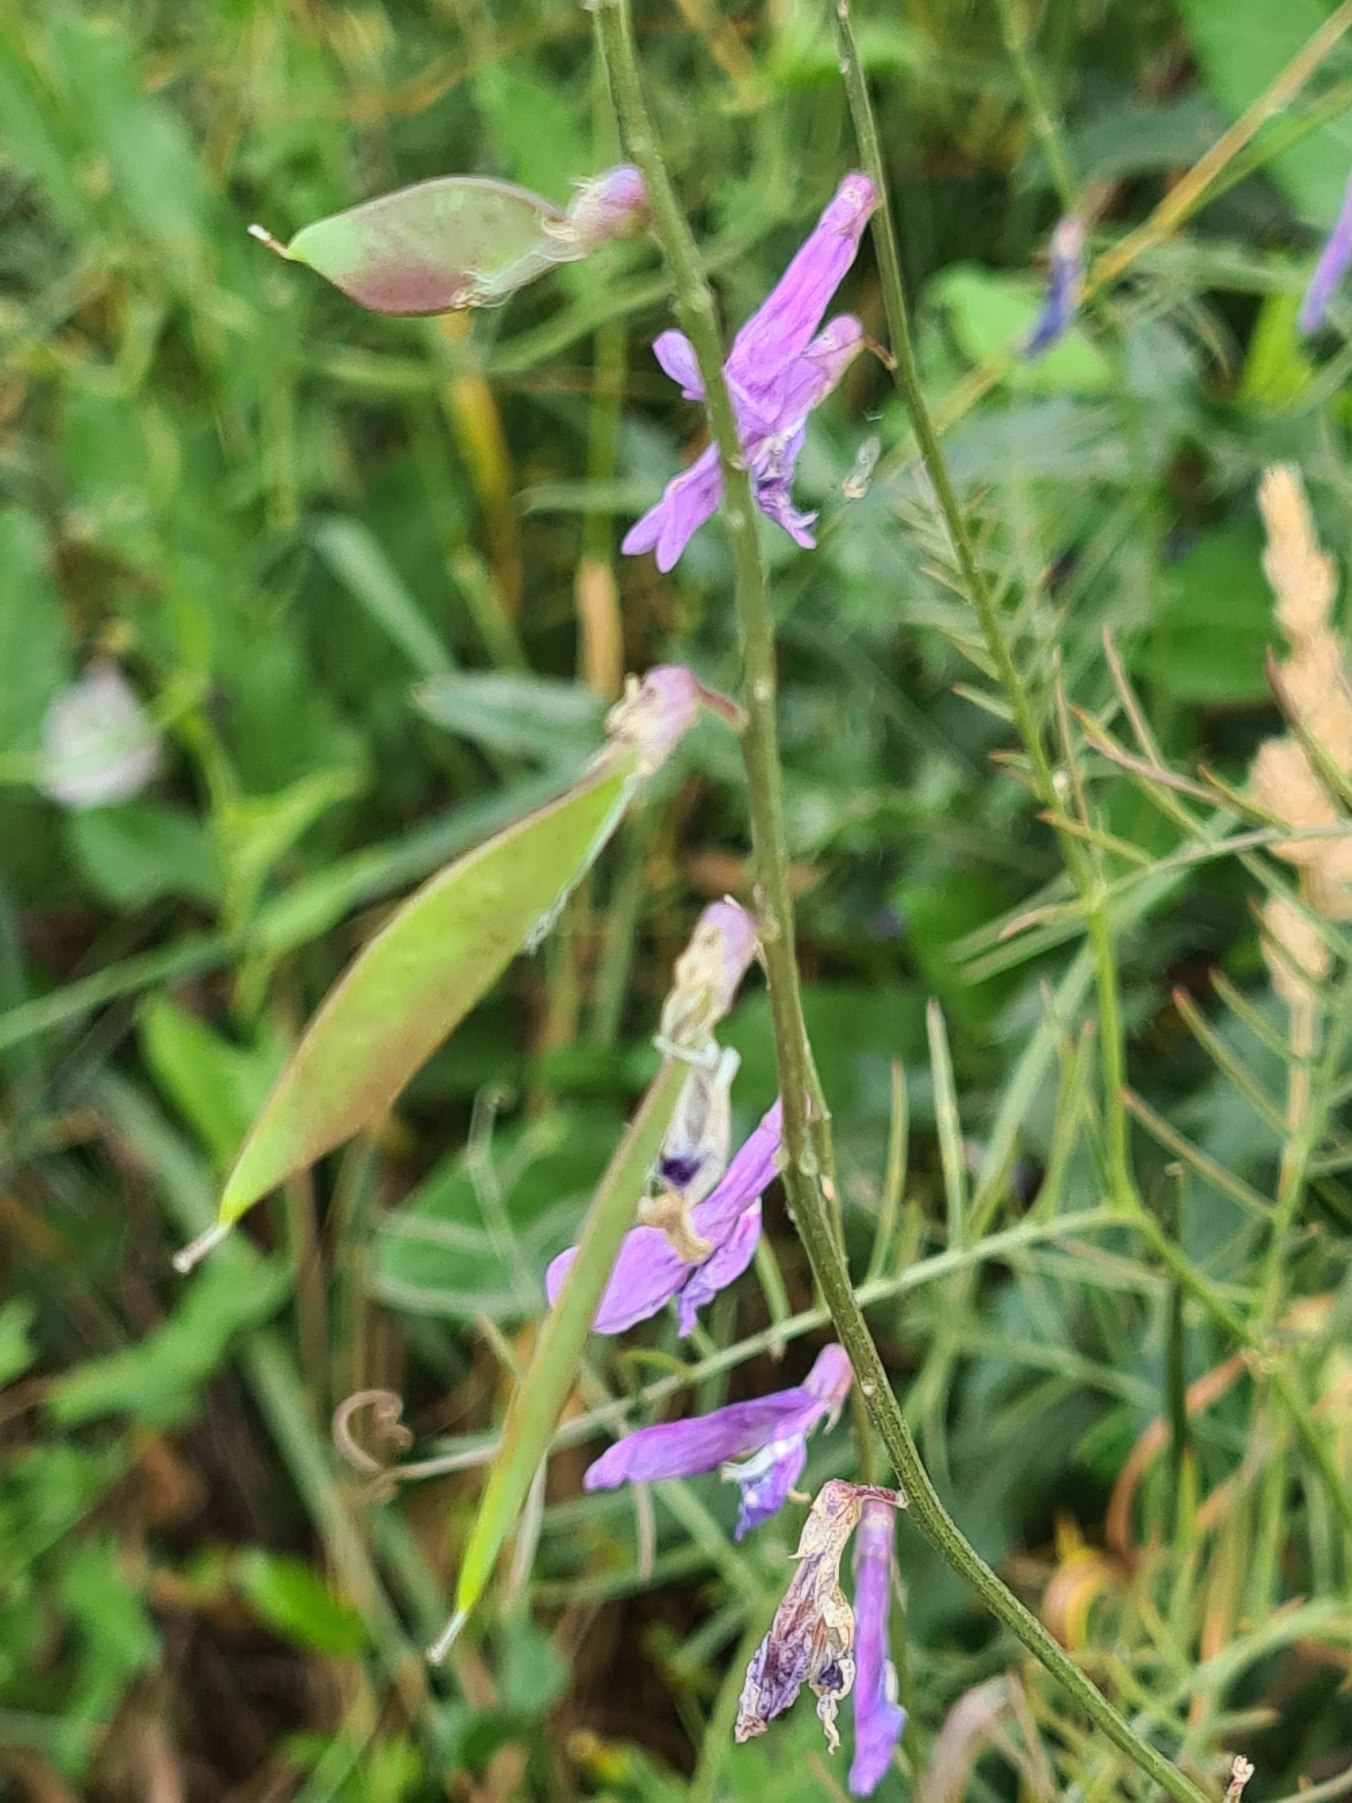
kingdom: Plantae
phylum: Tracheophyta
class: Magnoliopsida
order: Fabales
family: Fabaceae
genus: Vicia
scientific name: Vicia tenuifolia
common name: Langklaset vikke
